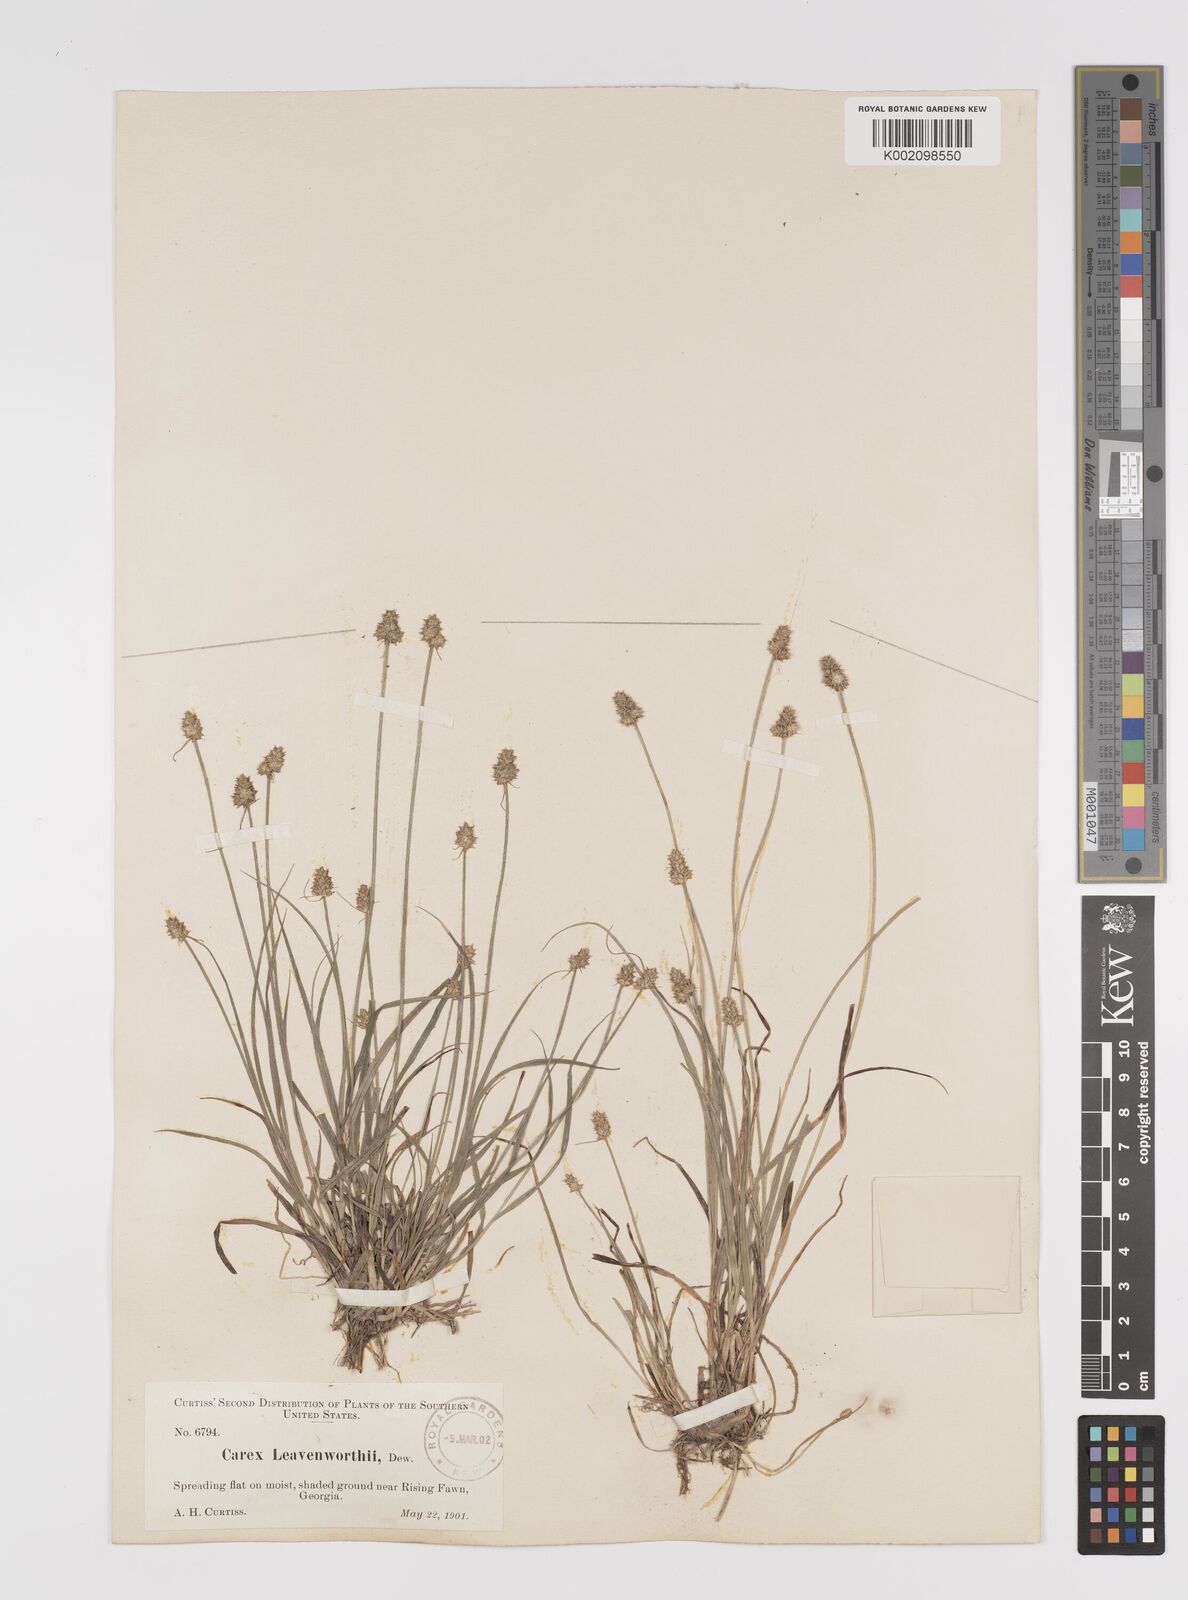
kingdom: Plantae
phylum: Tracheophyta
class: Liliopsida
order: Poales
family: Cyperaceae
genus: Carex
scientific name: Carex cephalophora
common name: Oval-headed sedge
